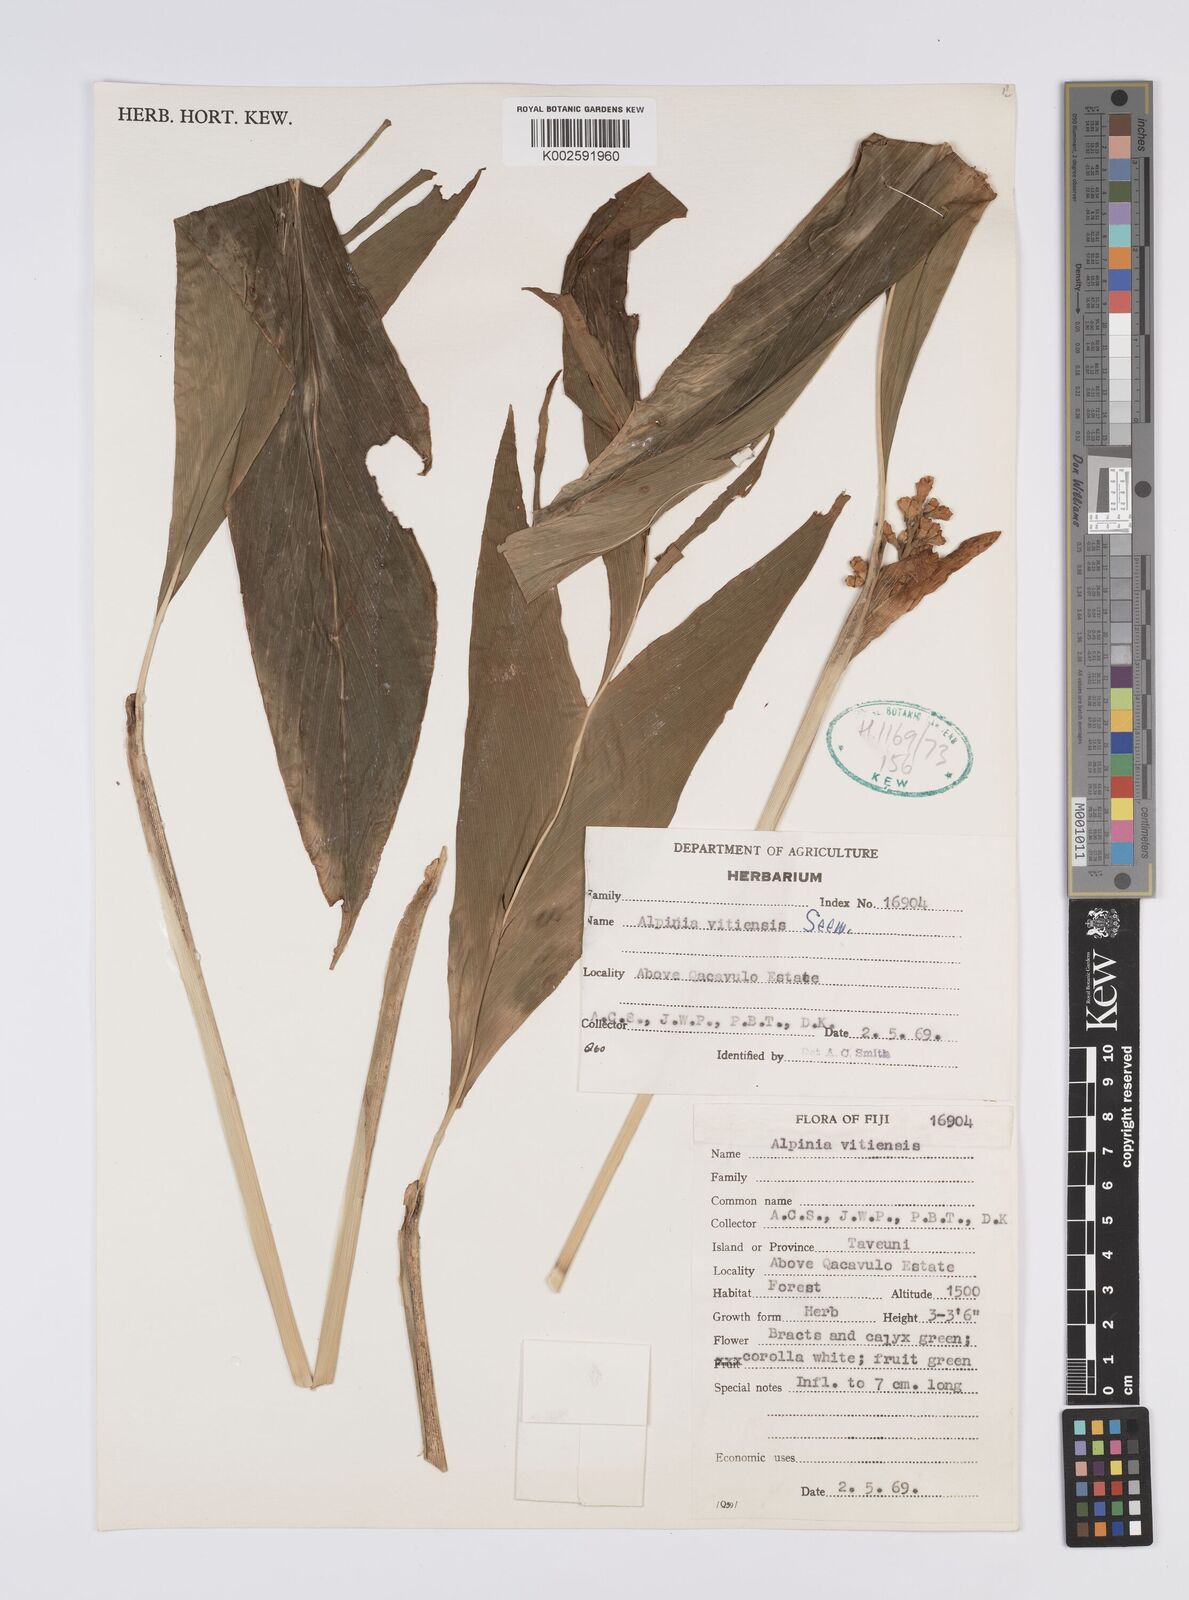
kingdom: Plantae
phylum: Tracheophyta
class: Liliopsida
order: Zingiberales
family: Zingiberaceae
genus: Alpinia
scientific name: Alpinia vitiensis
